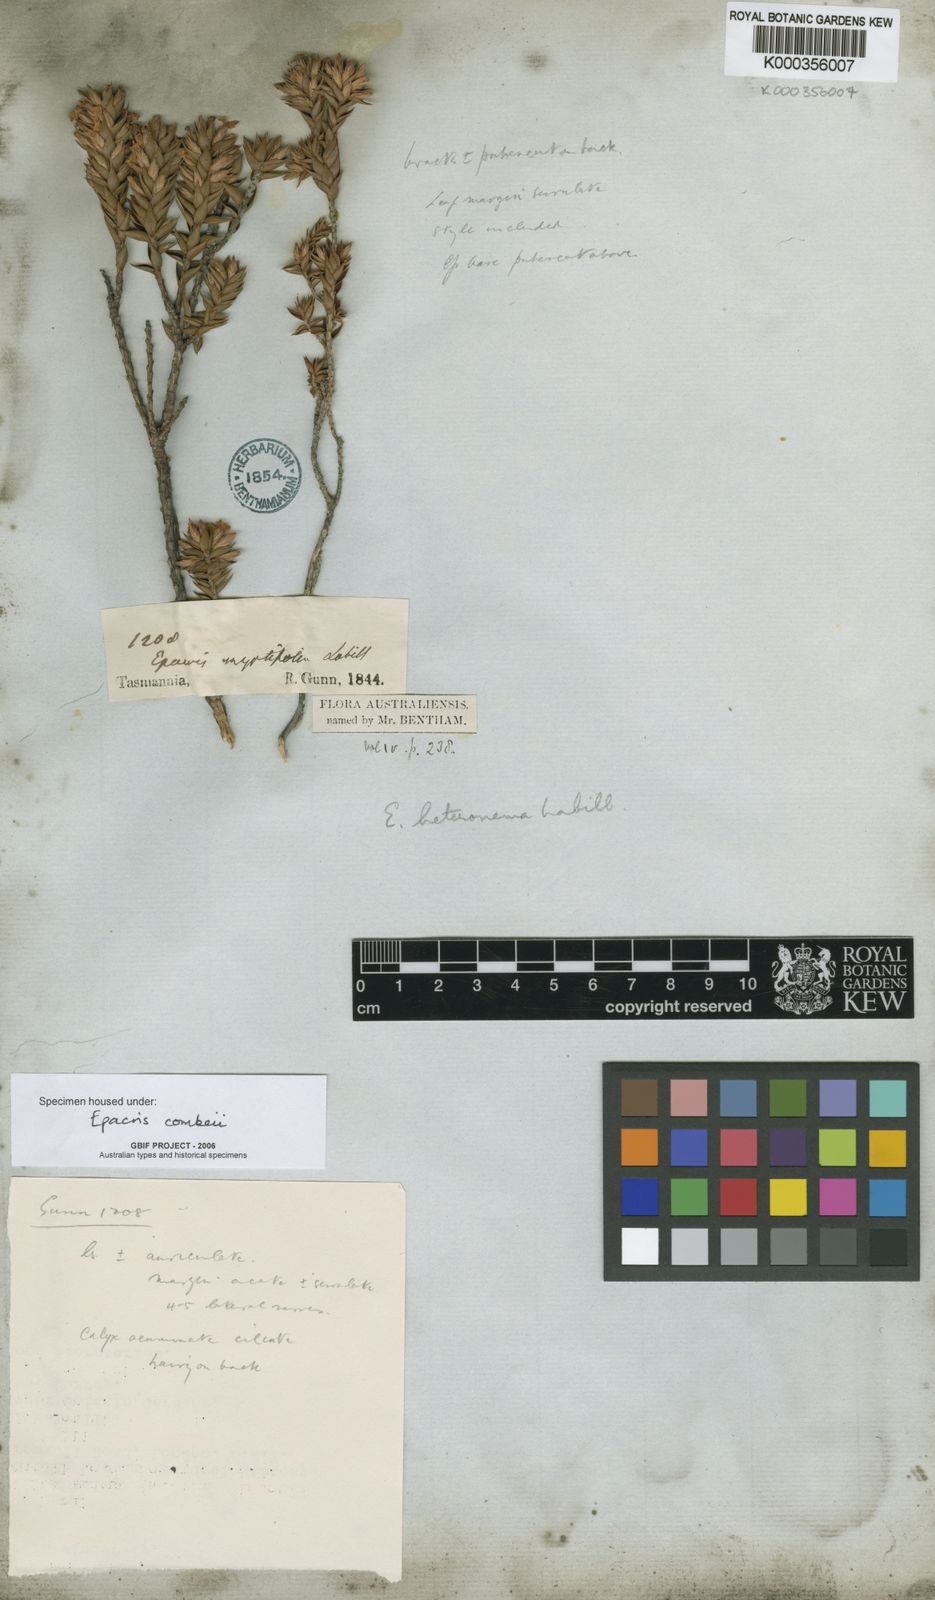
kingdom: Plantae
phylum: Tracheophyta
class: Magnoliopsida
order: Ericales
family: Ericaceae
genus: Epacris
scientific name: Epacris comberi
